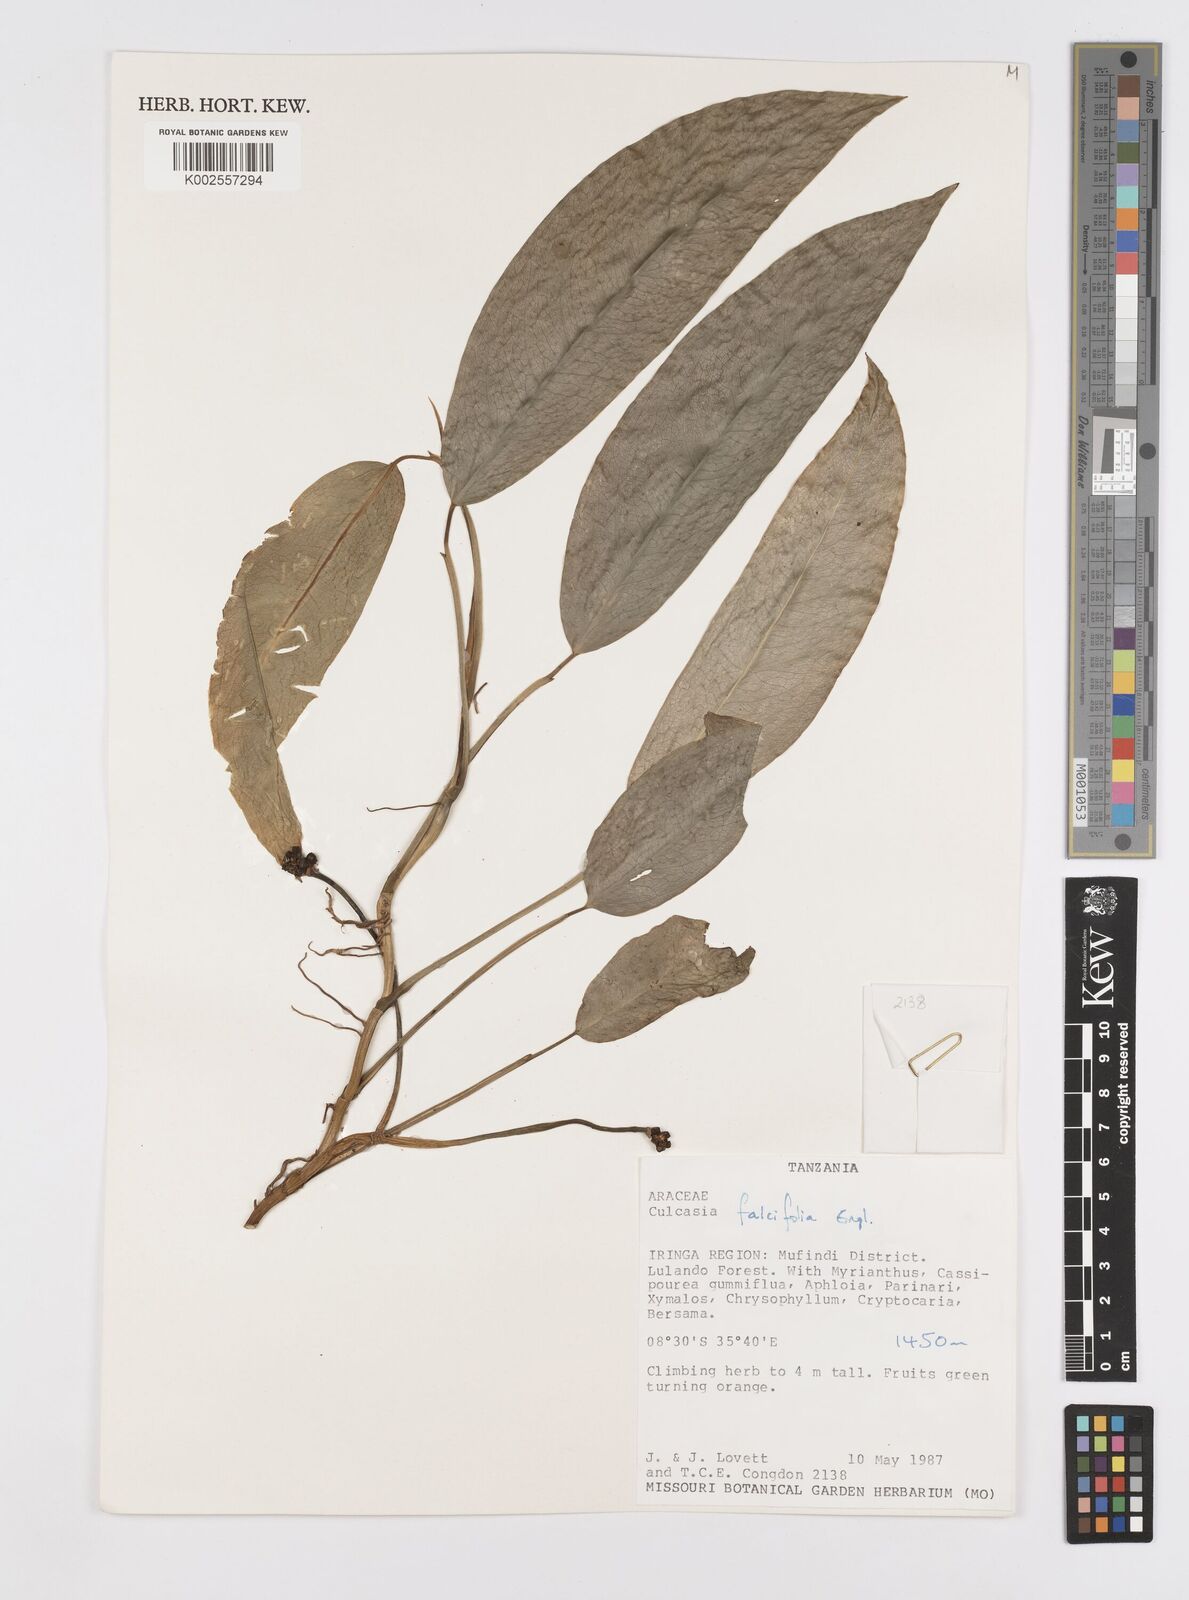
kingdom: Plantae
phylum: Tracheophyta
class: Liliopsida
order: Alismatales
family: Araceae
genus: Culcasia
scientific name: Culcasia falcifolia
